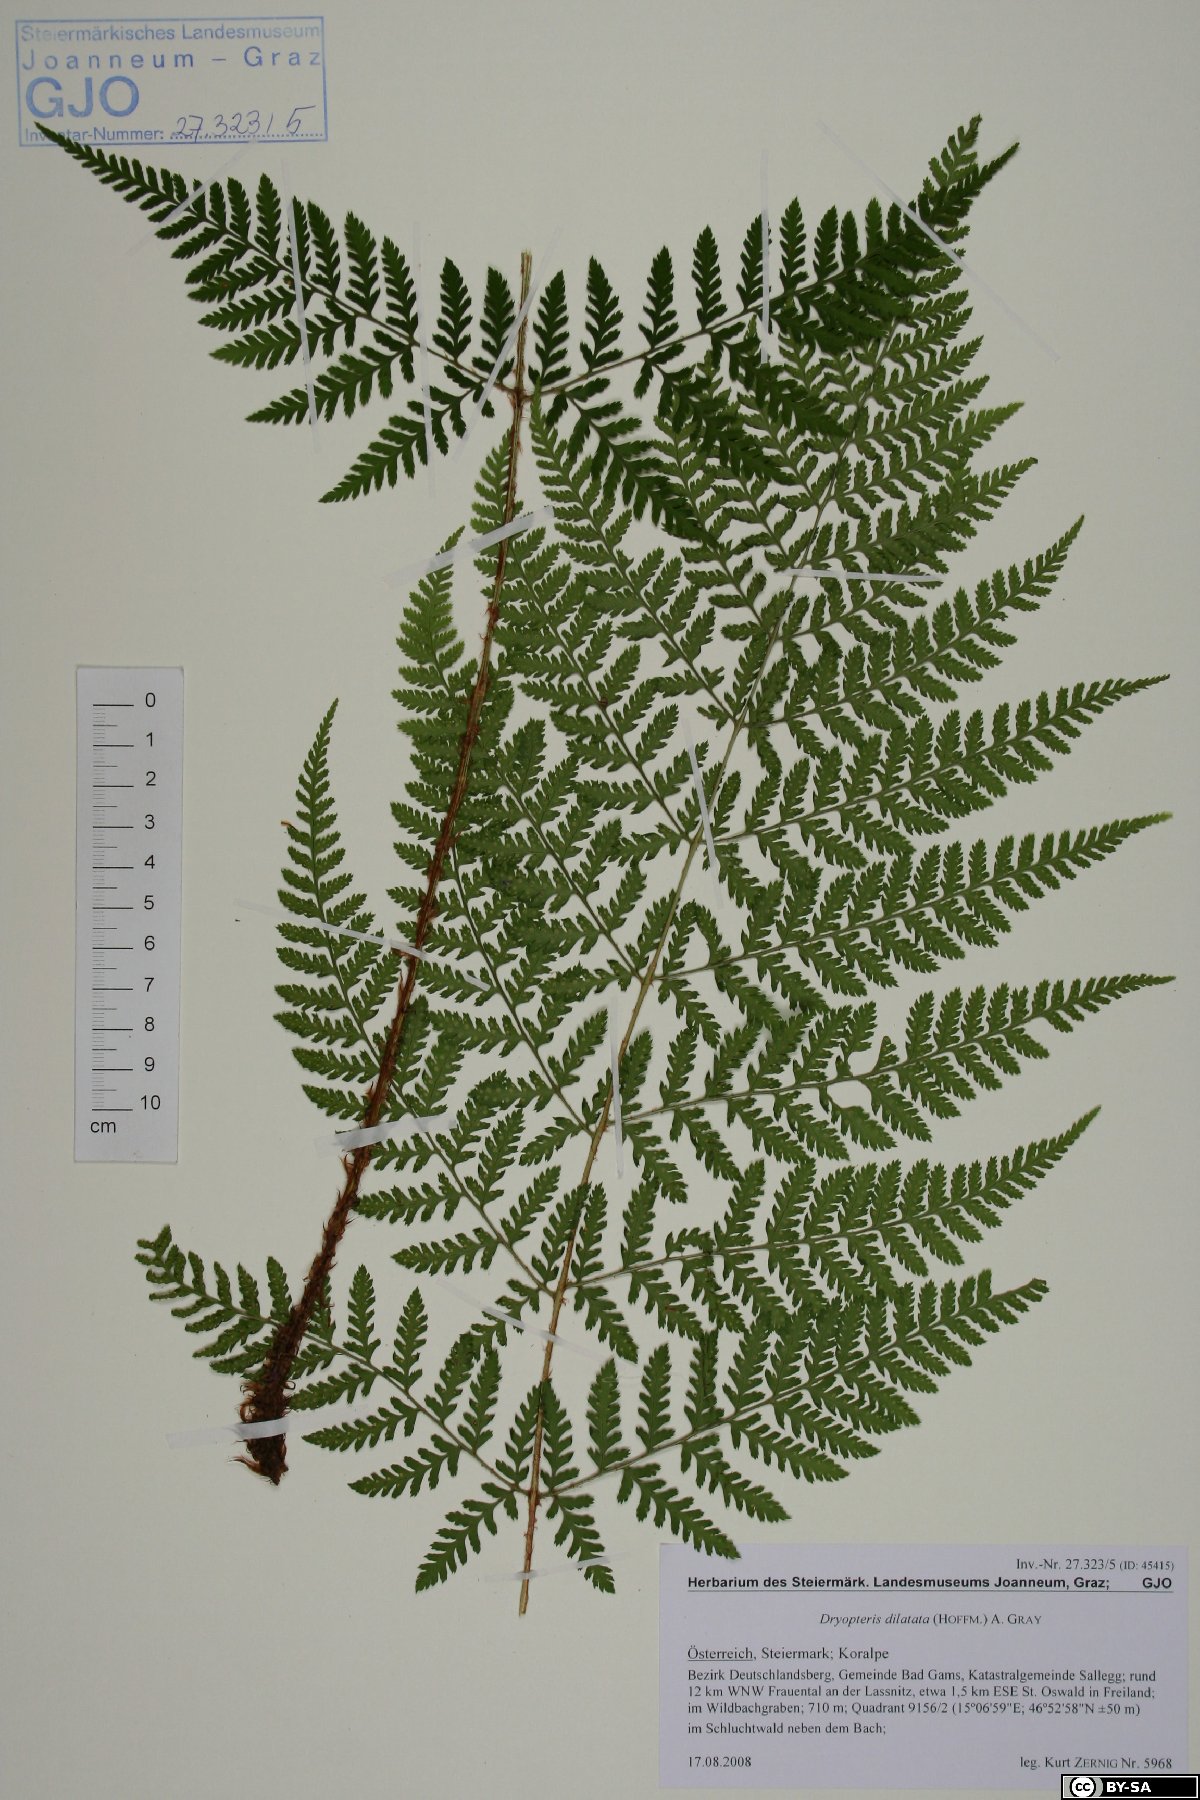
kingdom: Plantae
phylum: Tracheophyta
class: Polypodiopsida
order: Polypodiales
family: Dryopteridaceae
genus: Dryopteris
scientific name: Dryopteris dilatata
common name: Broad buckler-fern
